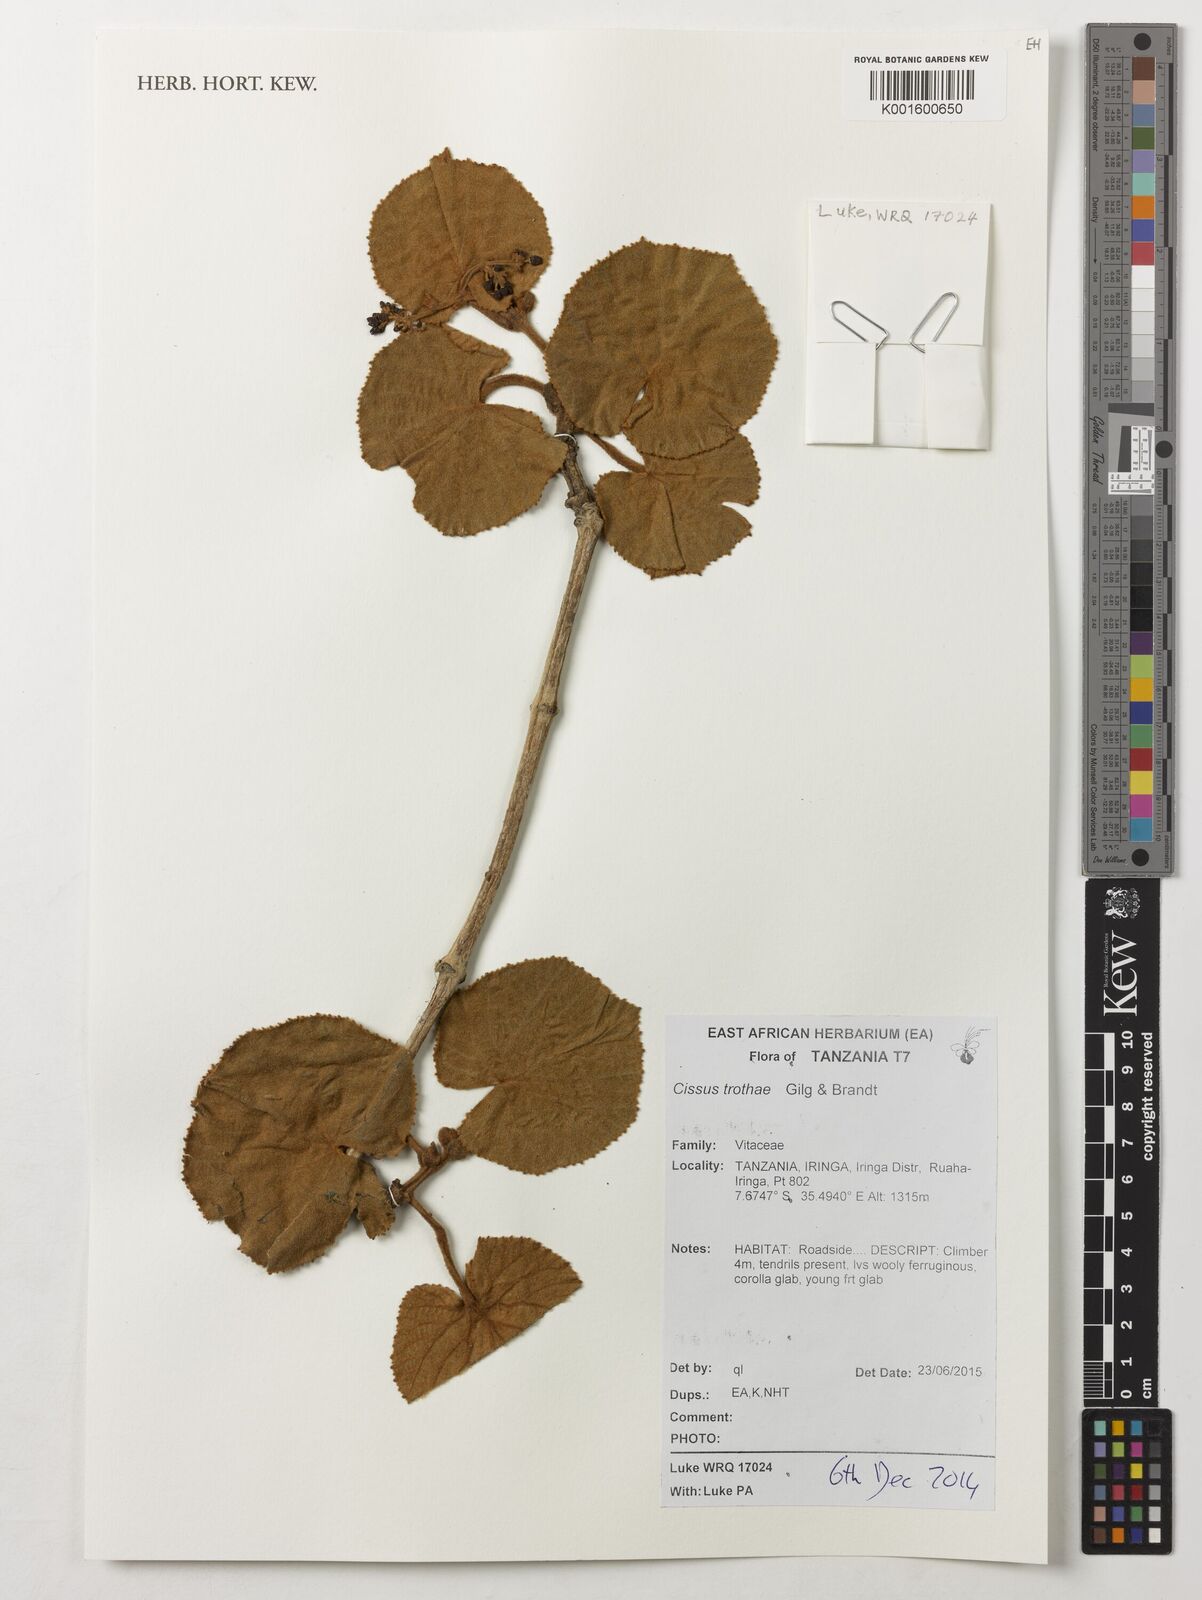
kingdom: Plantae
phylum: Tracheophyta
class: Magnoliopsida
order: Vitales
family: Vitaceae
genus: Cissus
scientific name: Cissus trothae
